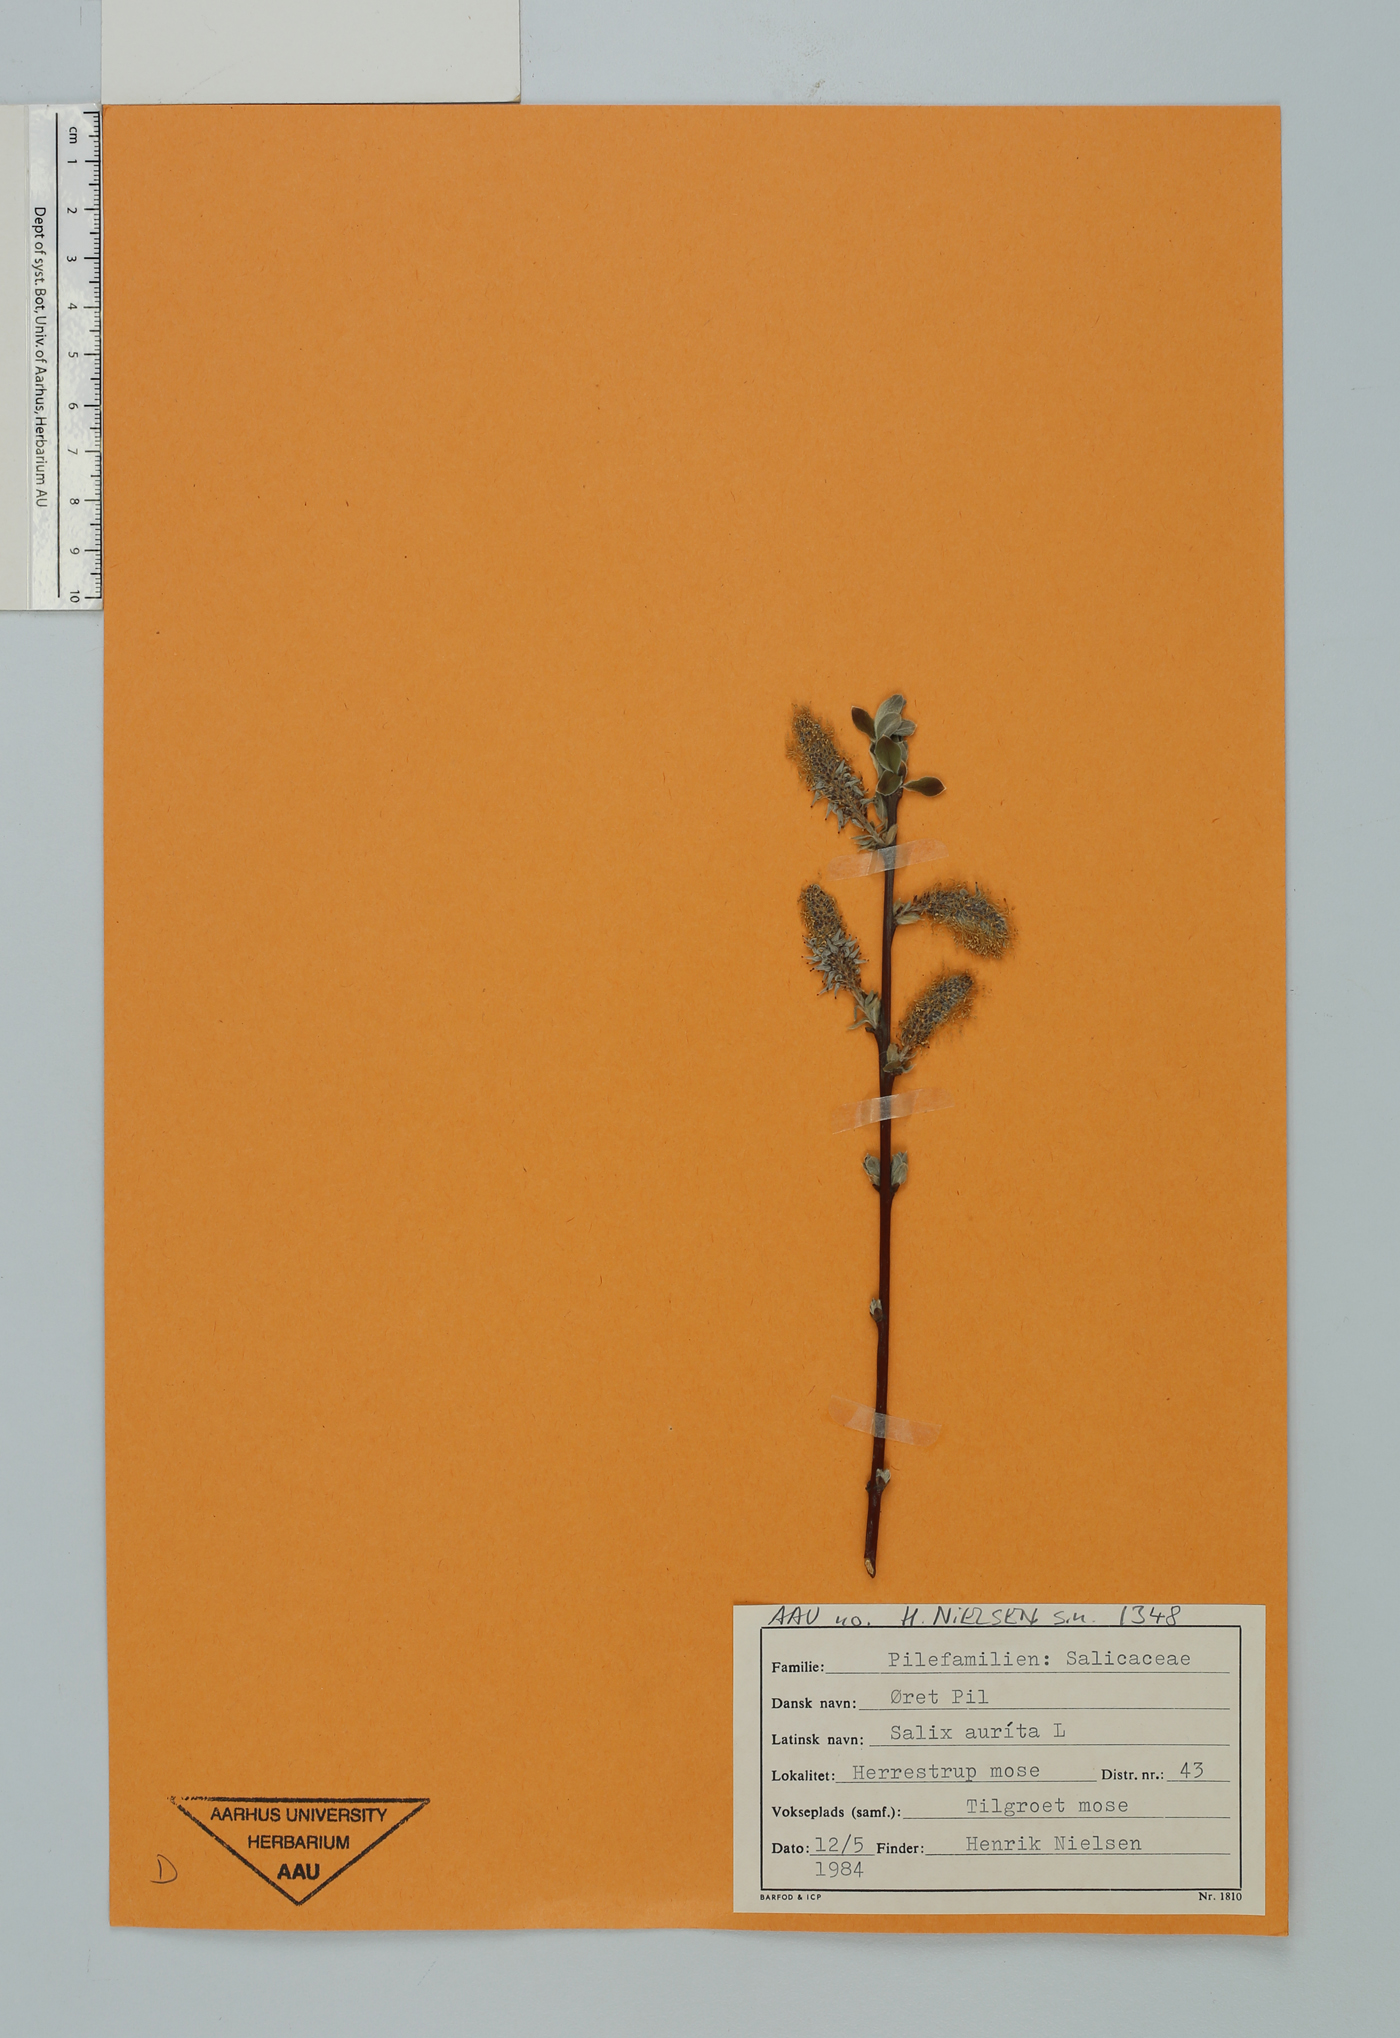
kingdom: Plantae
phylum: Tracheophyta
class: Magnoliopsida
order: Malpighiales
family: Salicaceae
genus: Salix
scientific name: Salix aurita
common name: Eared willow
